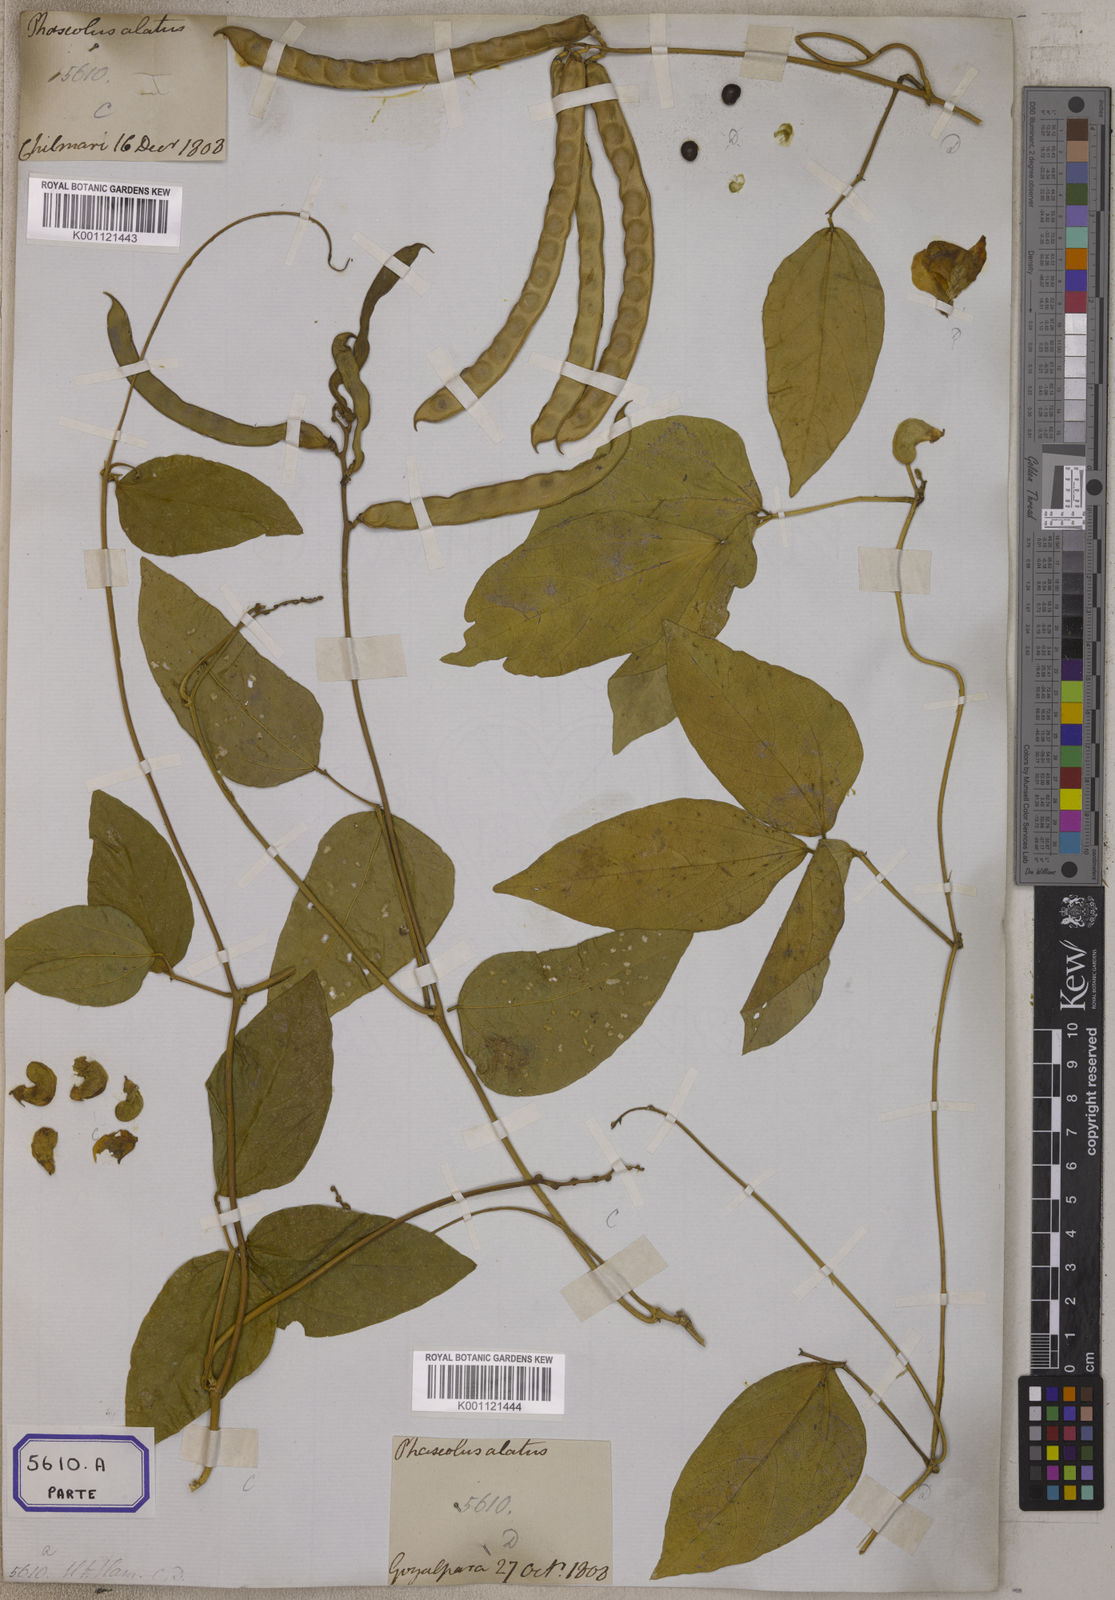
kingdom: Plantae
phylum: Tracheophyta
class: Magnoliopsida
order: Fabales
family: Fabaceae
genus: Leptospron
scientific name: Leptospron adenanthum
